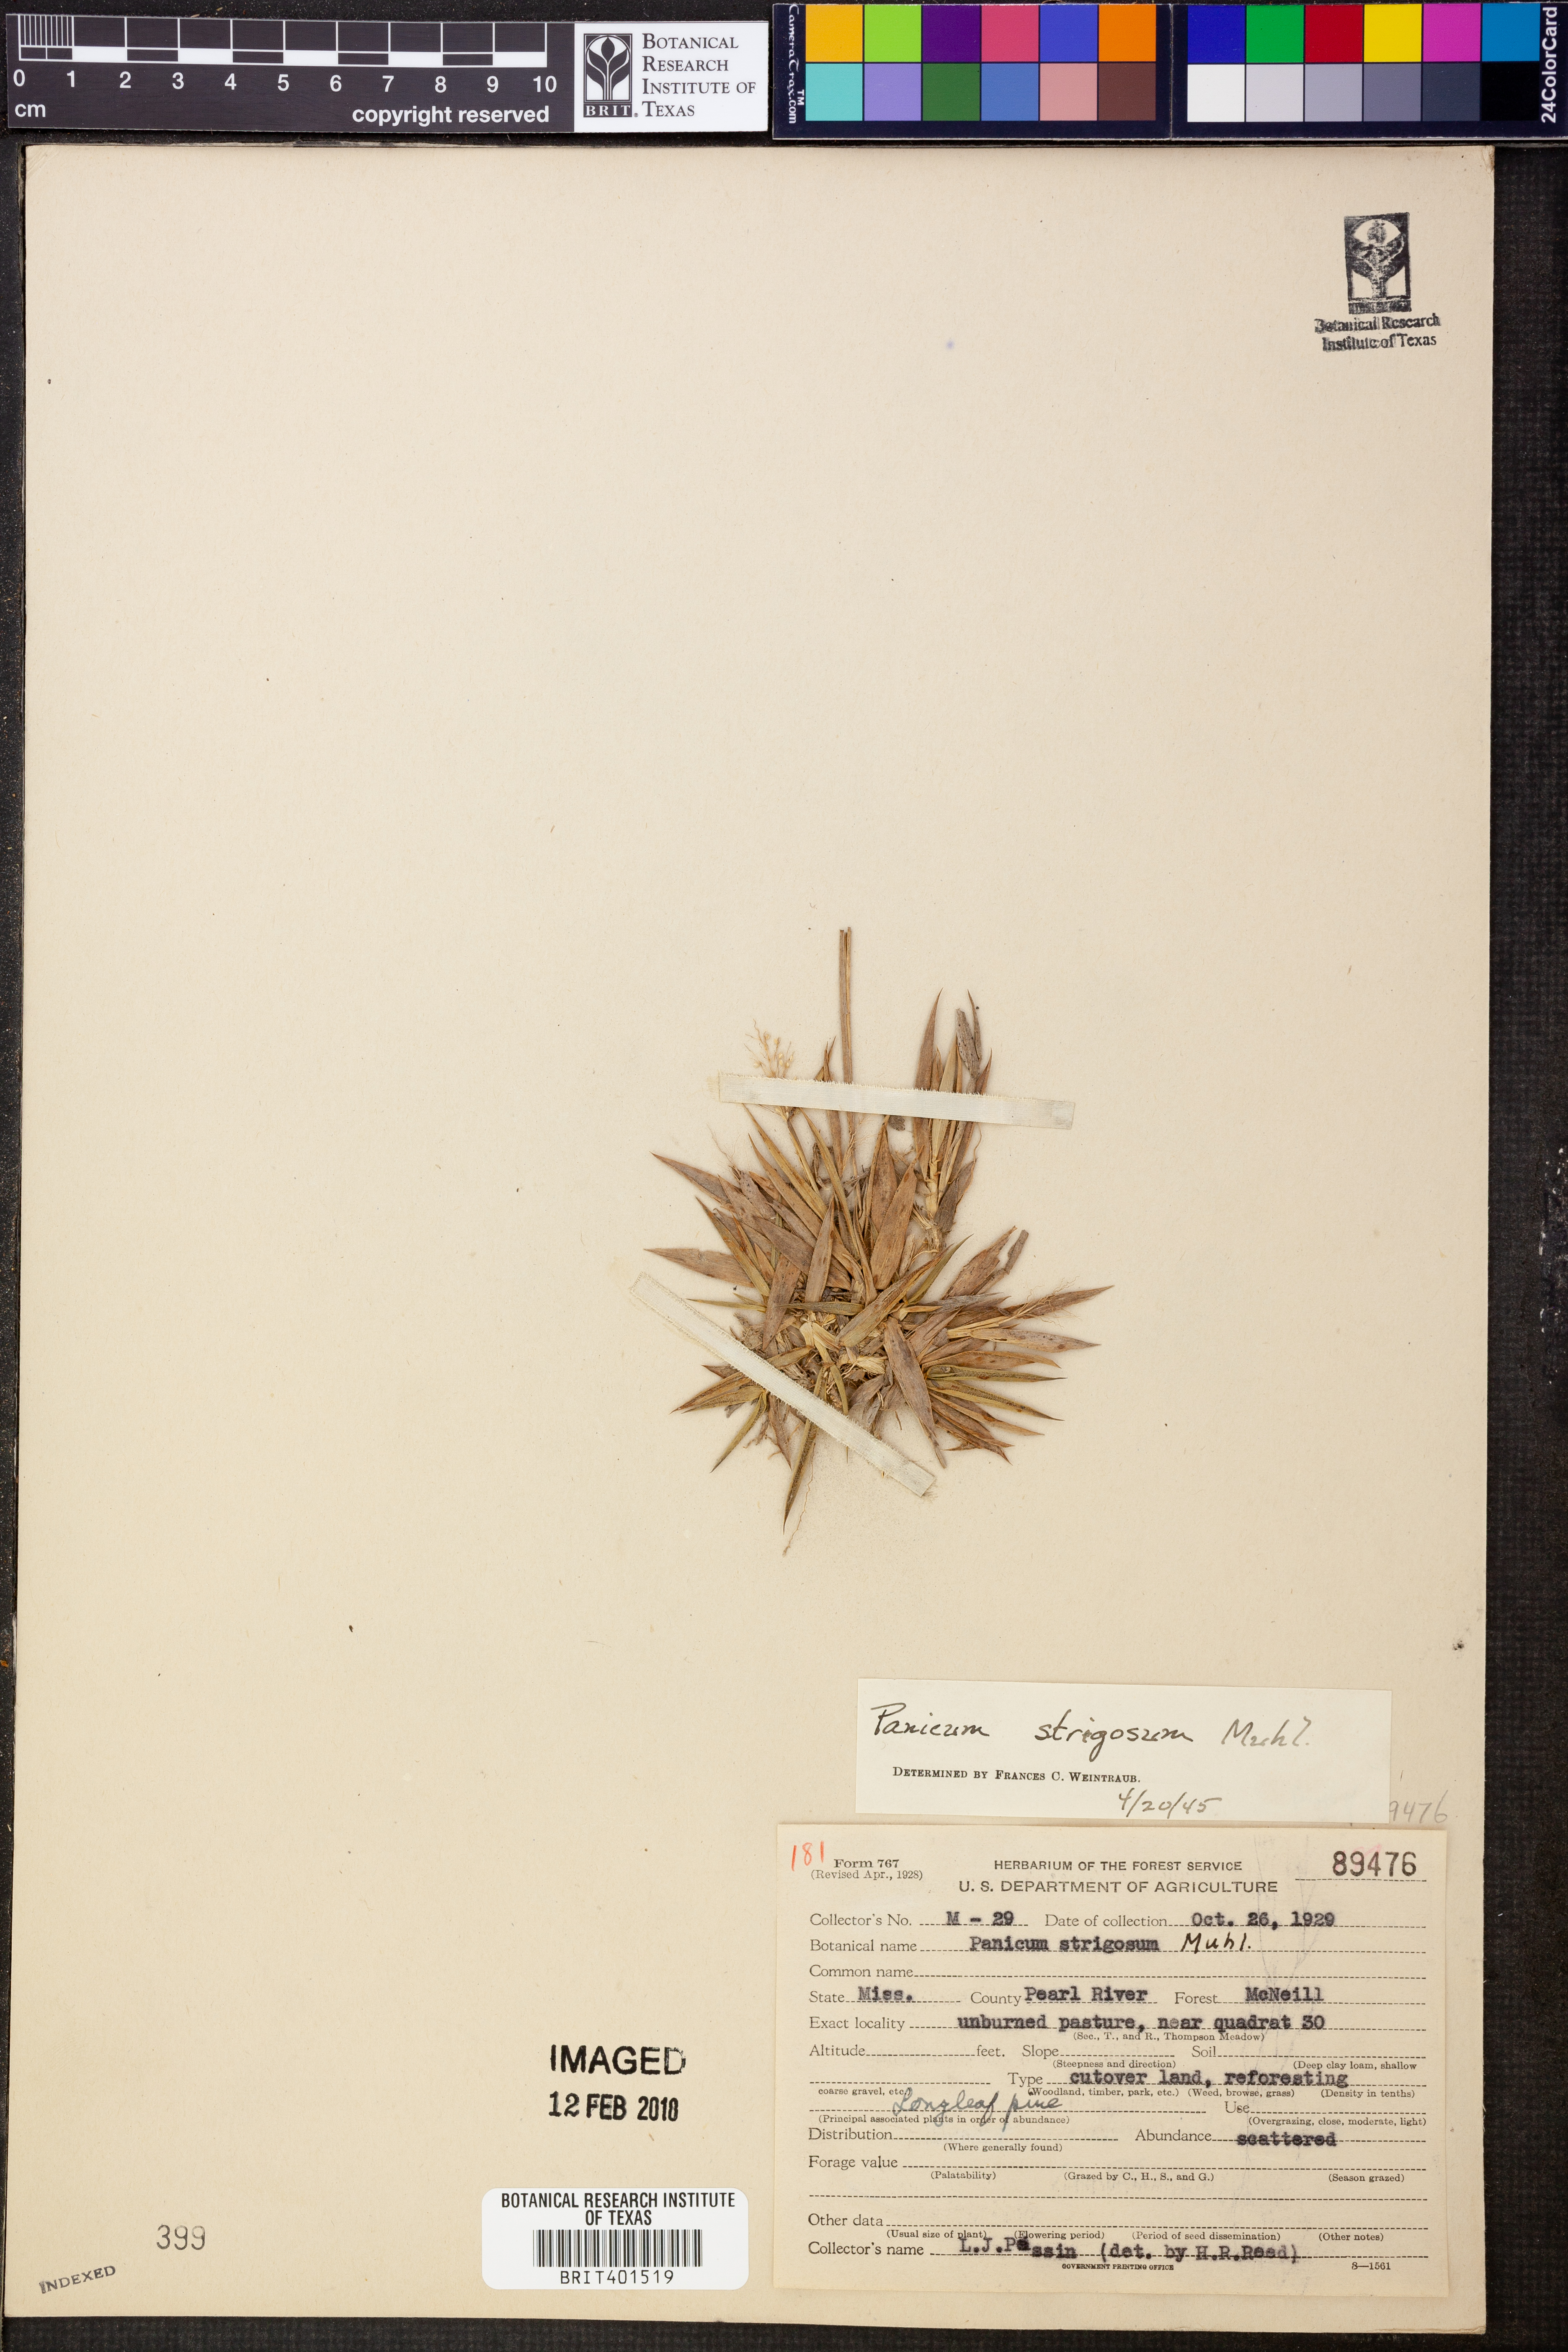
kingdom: Plantae
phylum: Tracheophyta
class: Liliopsida
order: Poales
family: Poaceae
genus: Dichanthelium
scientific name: Dichanthelium strigosum
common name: Cushion-tuft panic grass
